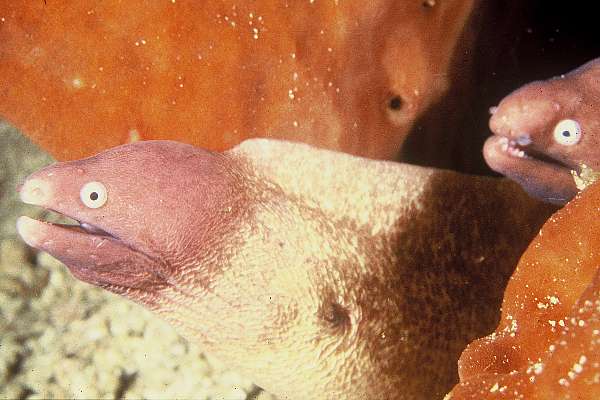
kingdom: Animalia
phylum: Chordata
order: Anguilliformes
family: Muraenidae
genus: Gymnothorax
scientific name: Gymnothorax thyrsoideus
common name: Greyface moray
